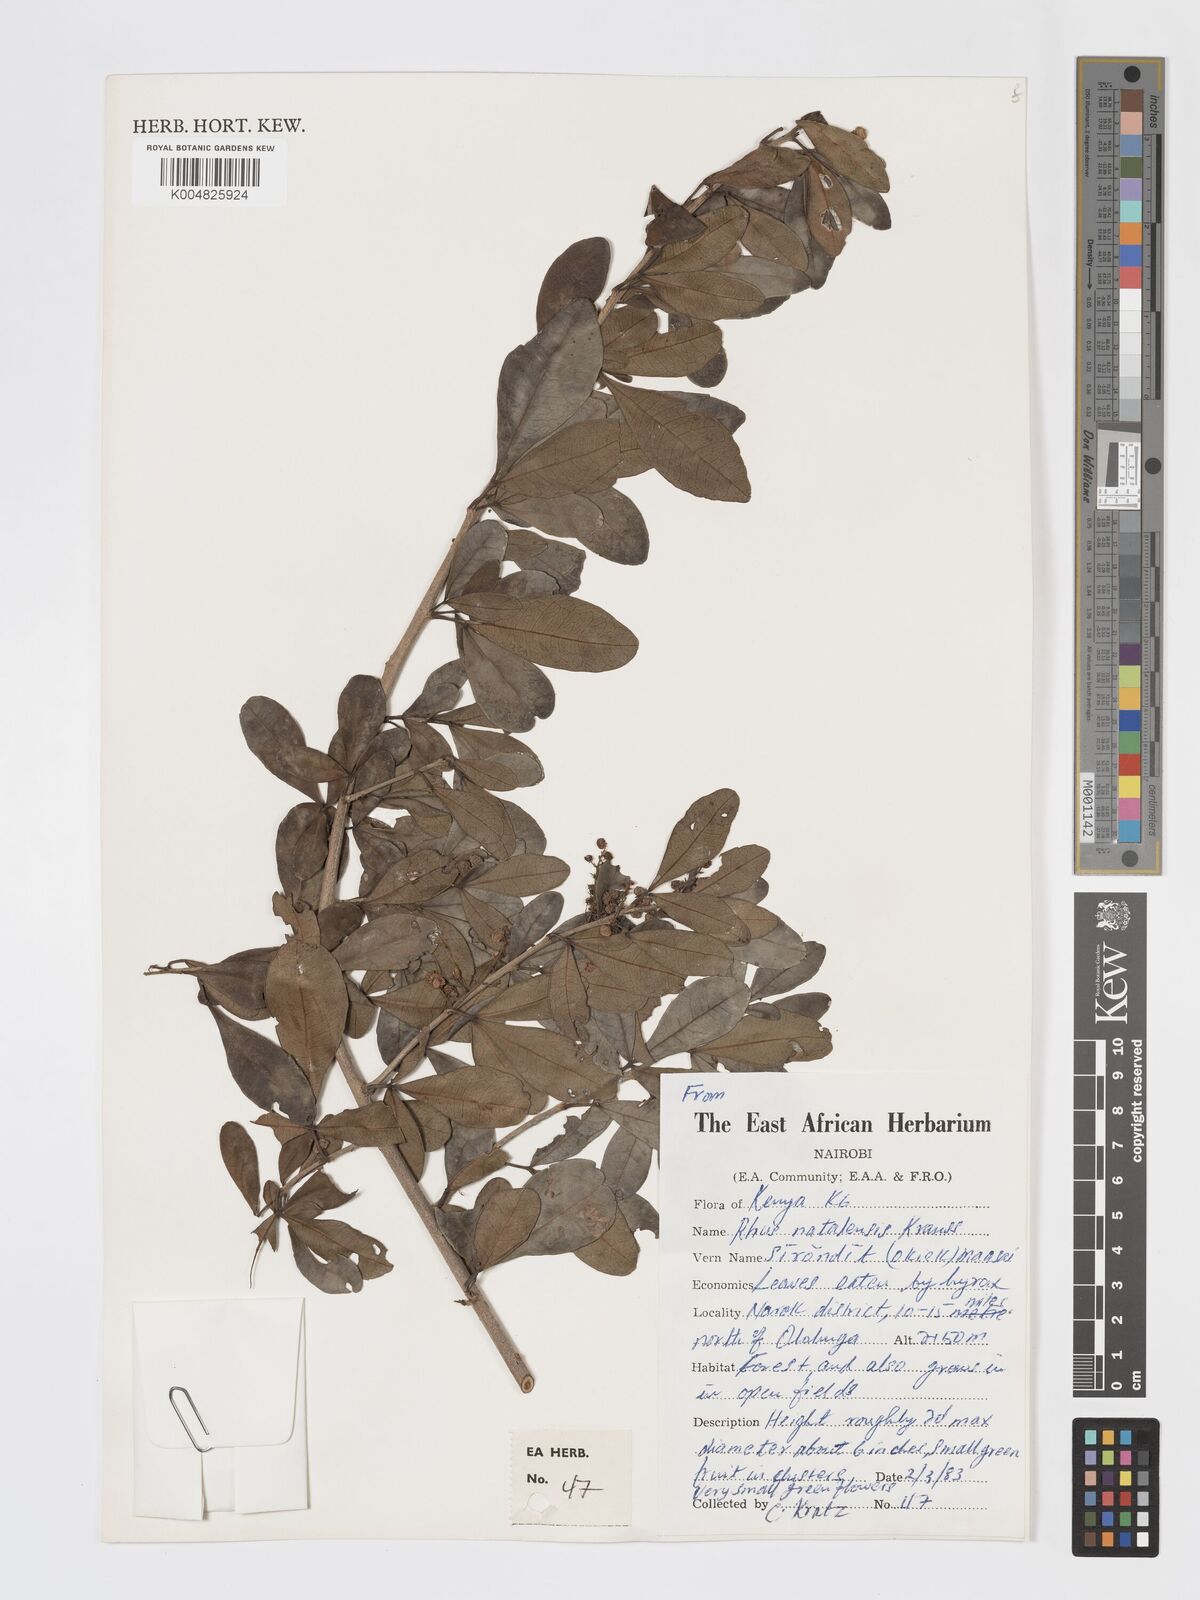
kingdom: Plantae
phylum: Tracheophyta
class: Magnoliopsida
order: Sapindales
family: Anacardiaceae
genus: Searsia
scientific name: Searsia natalensis
